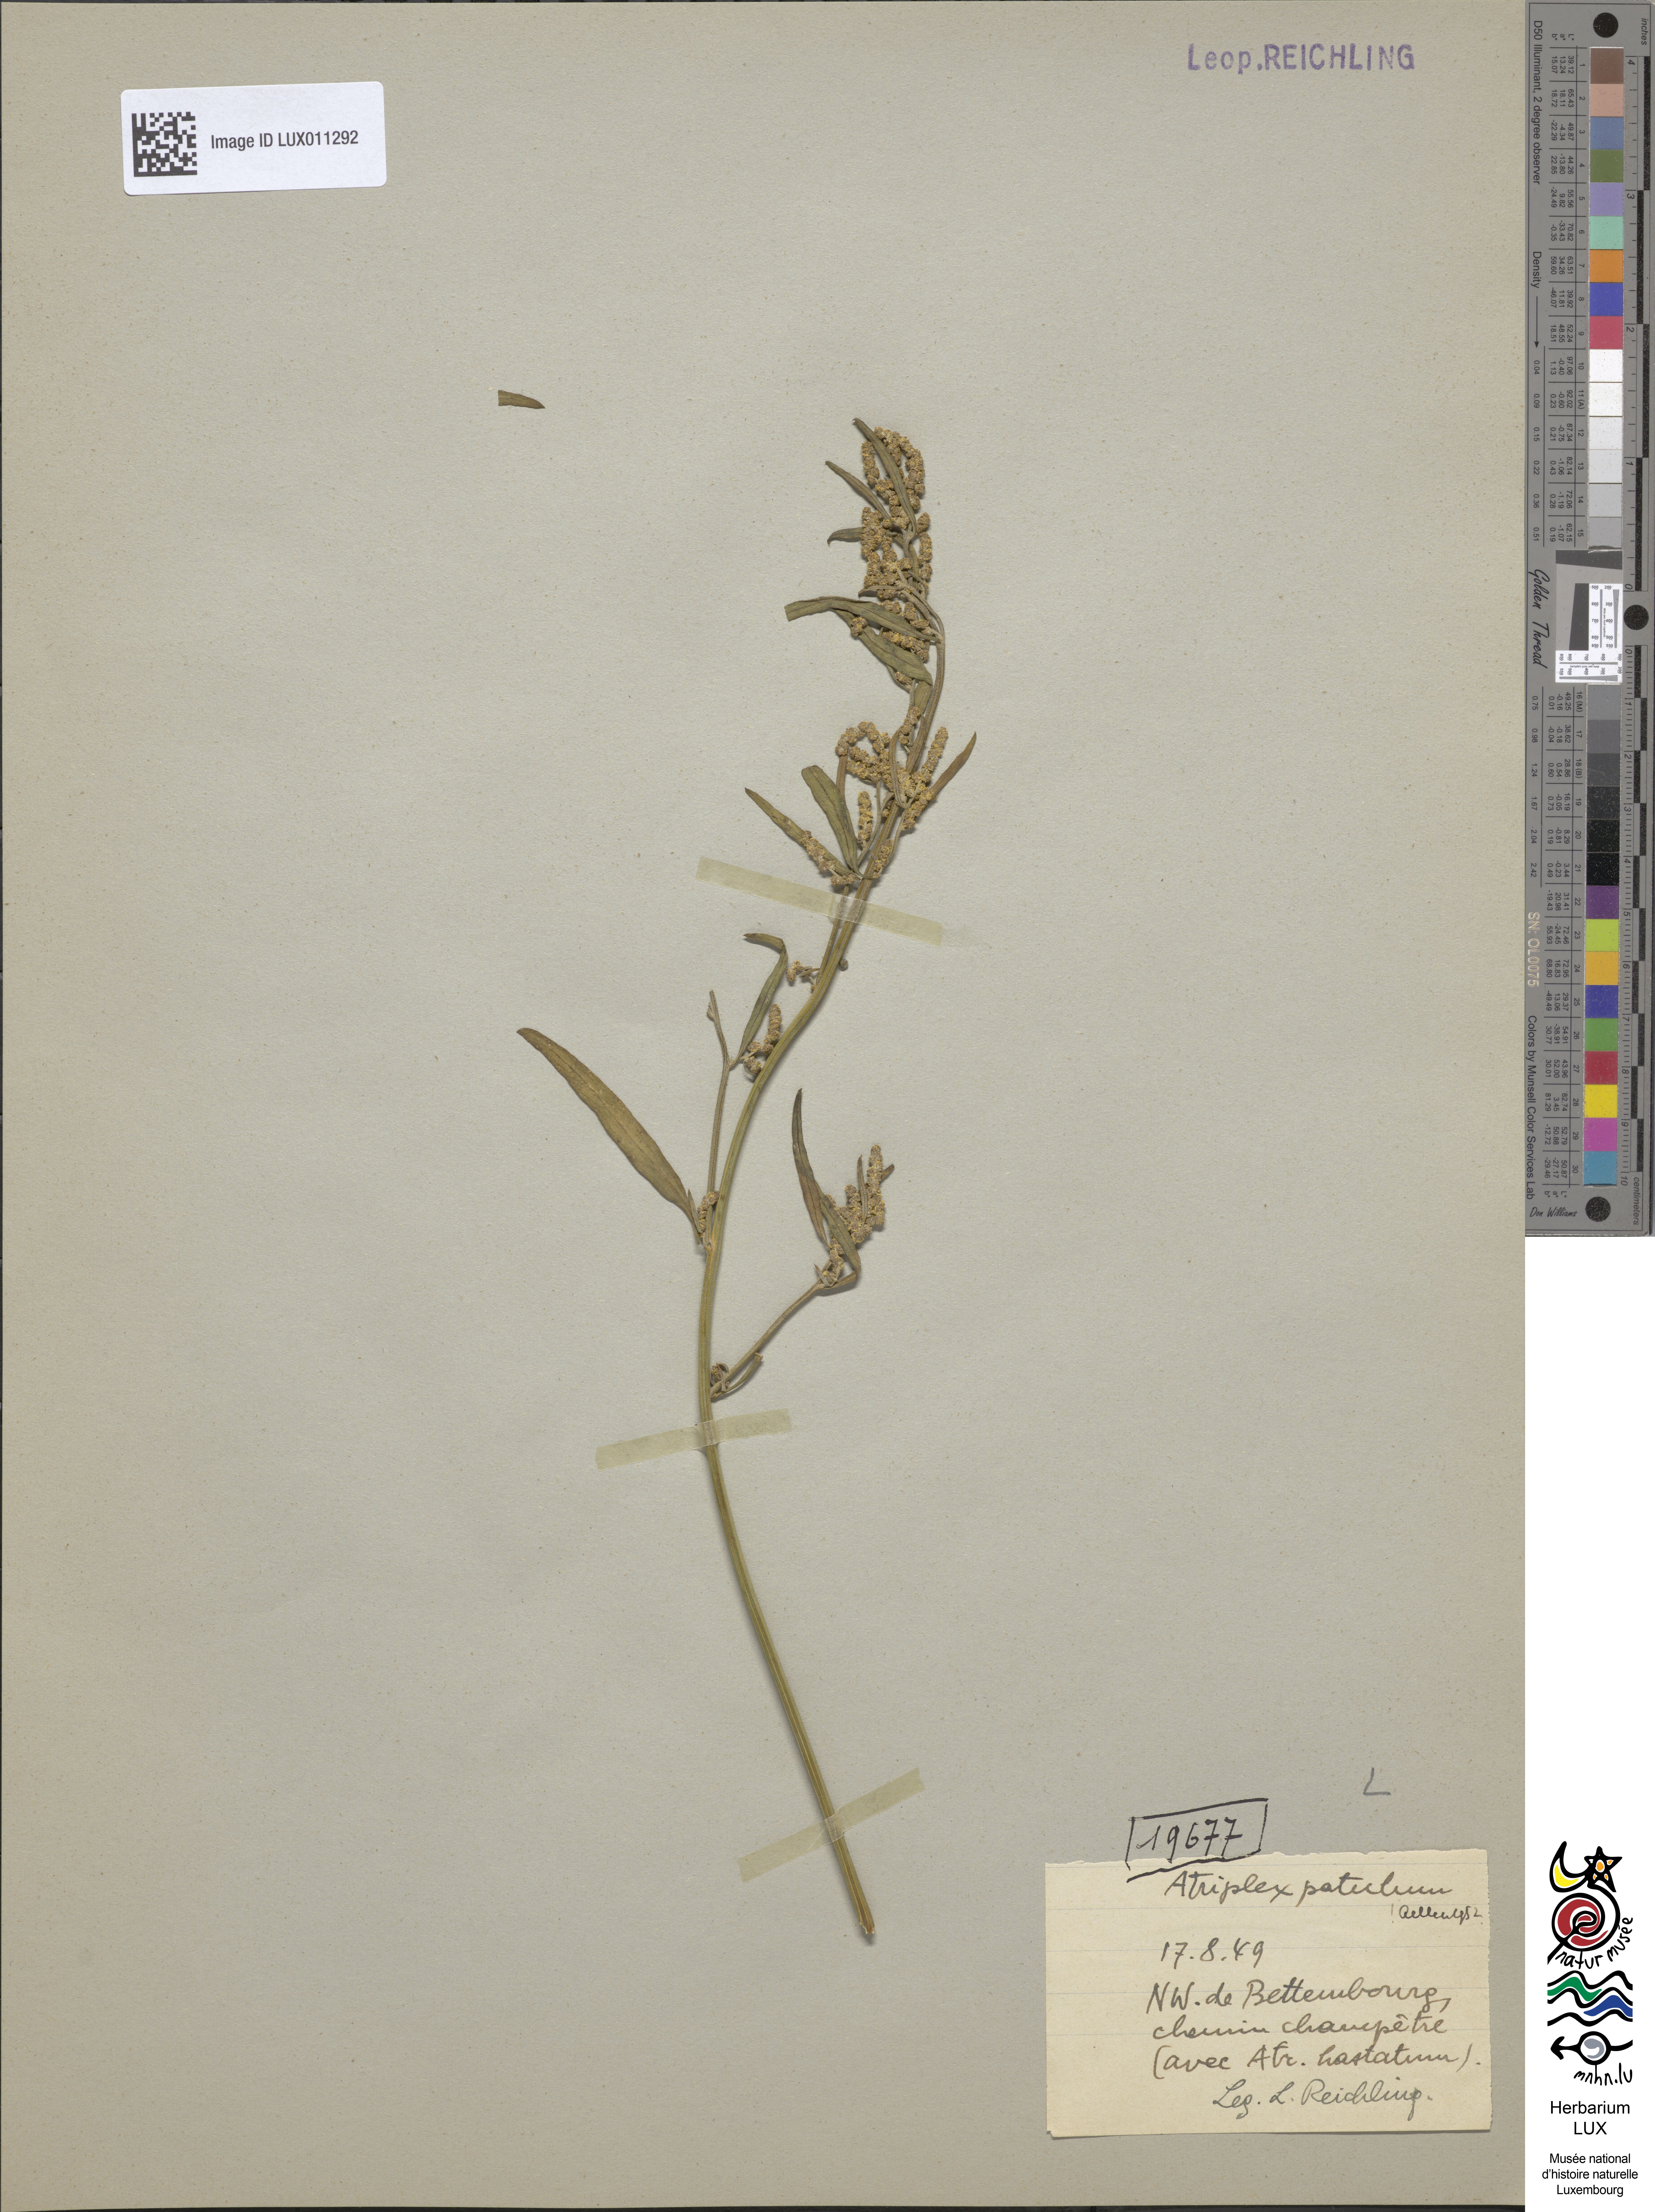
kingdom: Plantae
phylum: Tracheophyta
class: Magnoliopsida
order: Caryophyllales
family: Amaranthaceae
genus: Atriplex
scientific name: Atriplex patula
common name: Common orache
